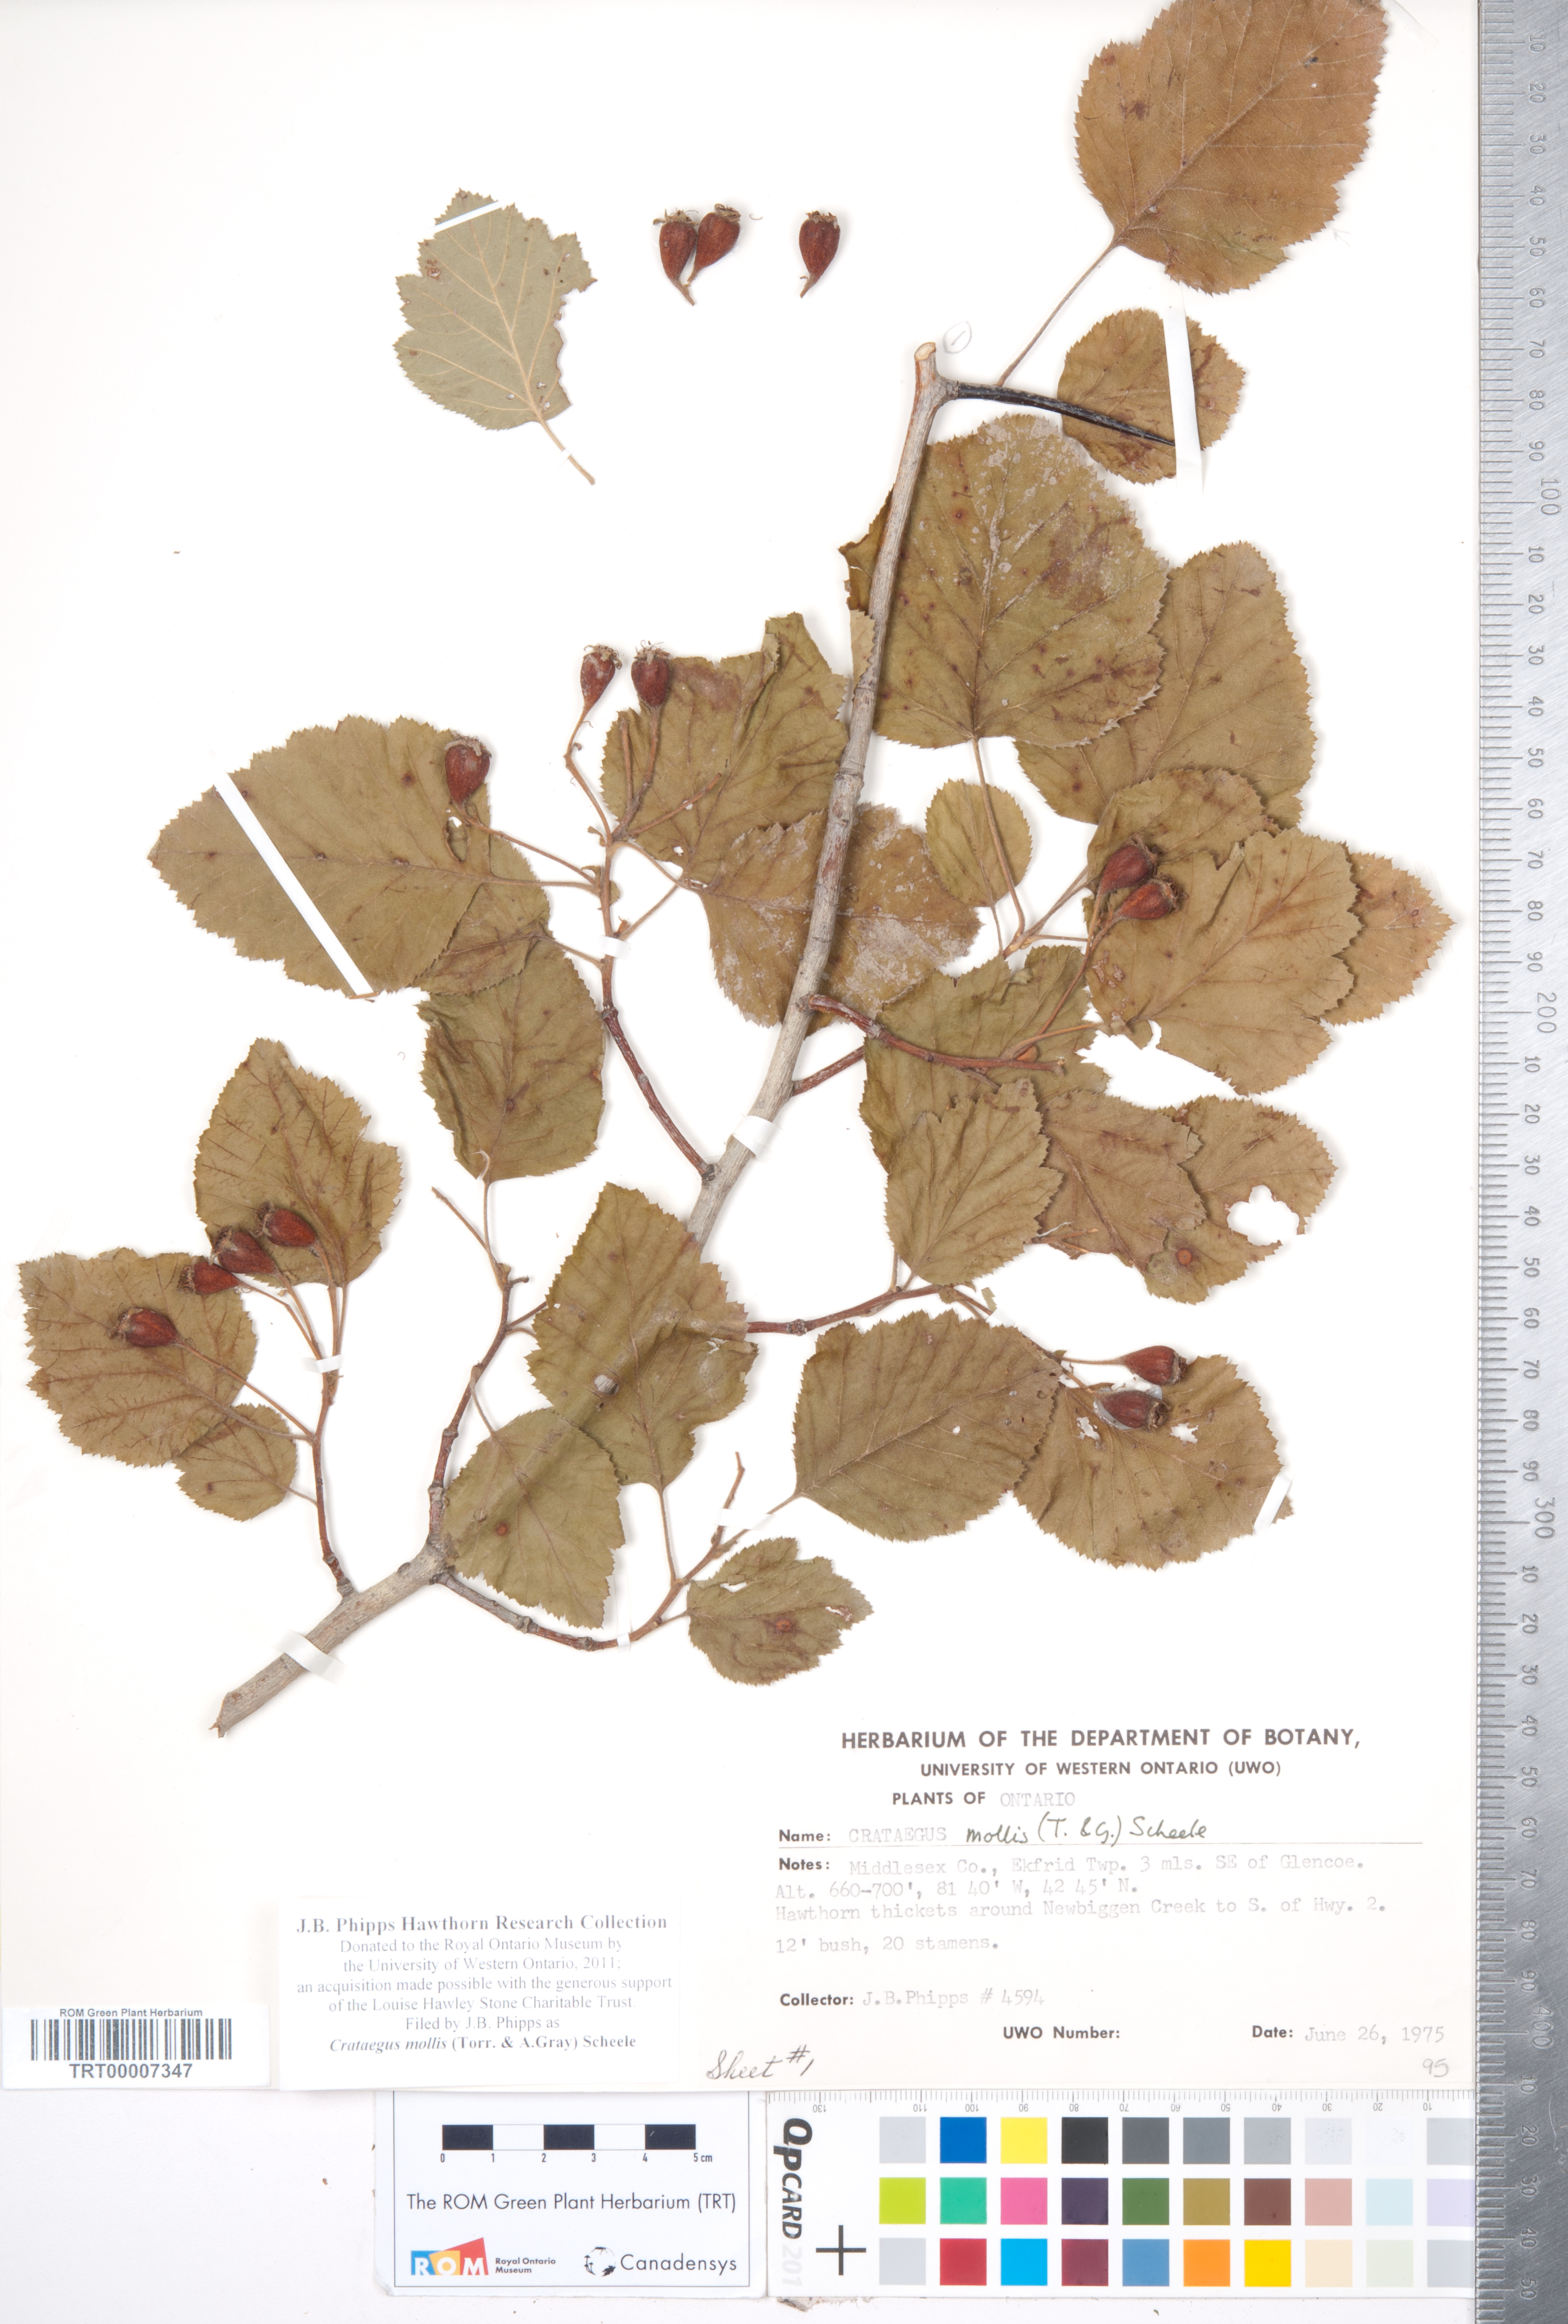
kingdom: Plantae
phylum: Tracheophyta
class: Magnoliopsida
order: Rosales
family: Rosaceae
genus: Crataegus
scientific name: Crataegus mollis
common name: Downy hawthorn
